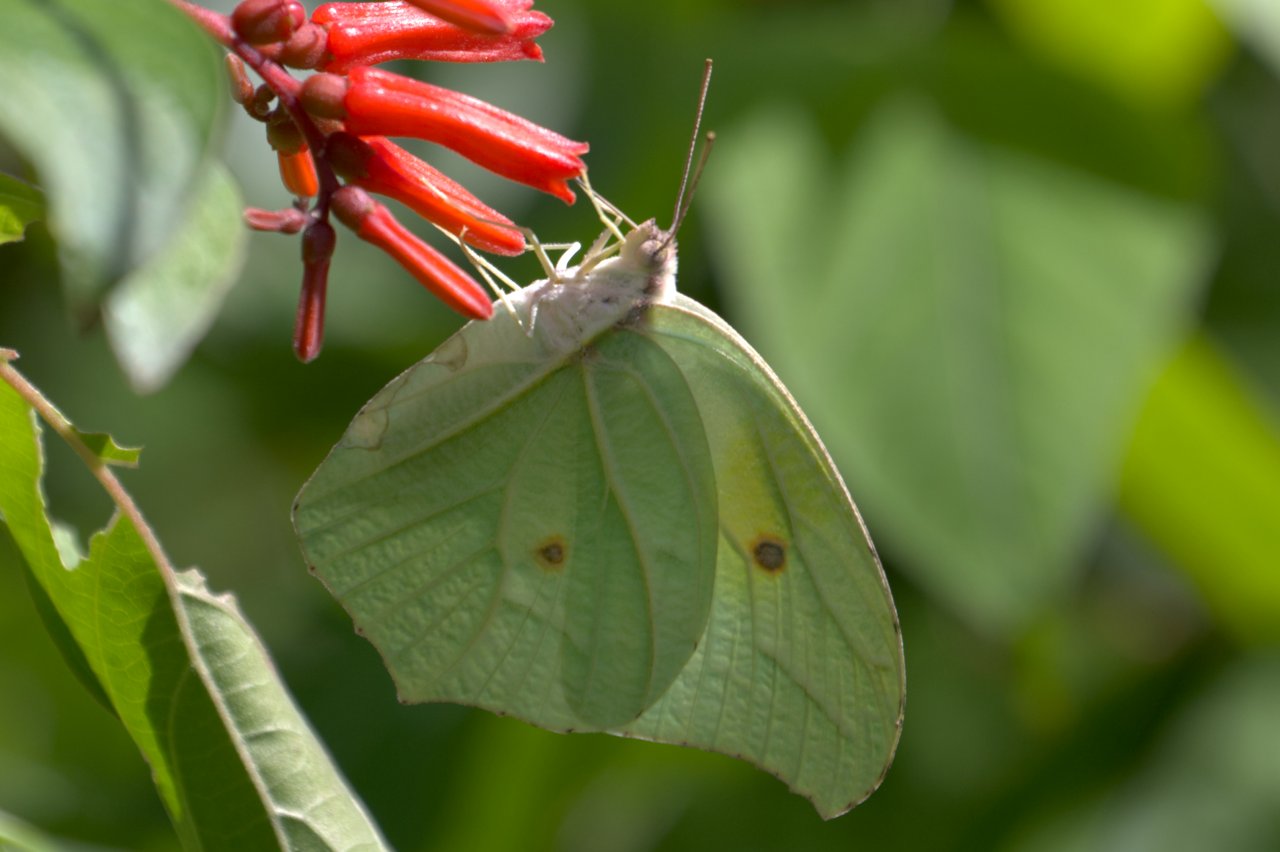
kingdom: Animalia
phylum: Arthropoda
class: Insecta
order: Lepidoptera
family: Pieridae
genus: Anteos
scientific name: Anteos clorinde
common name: White Angled-Sulphur
